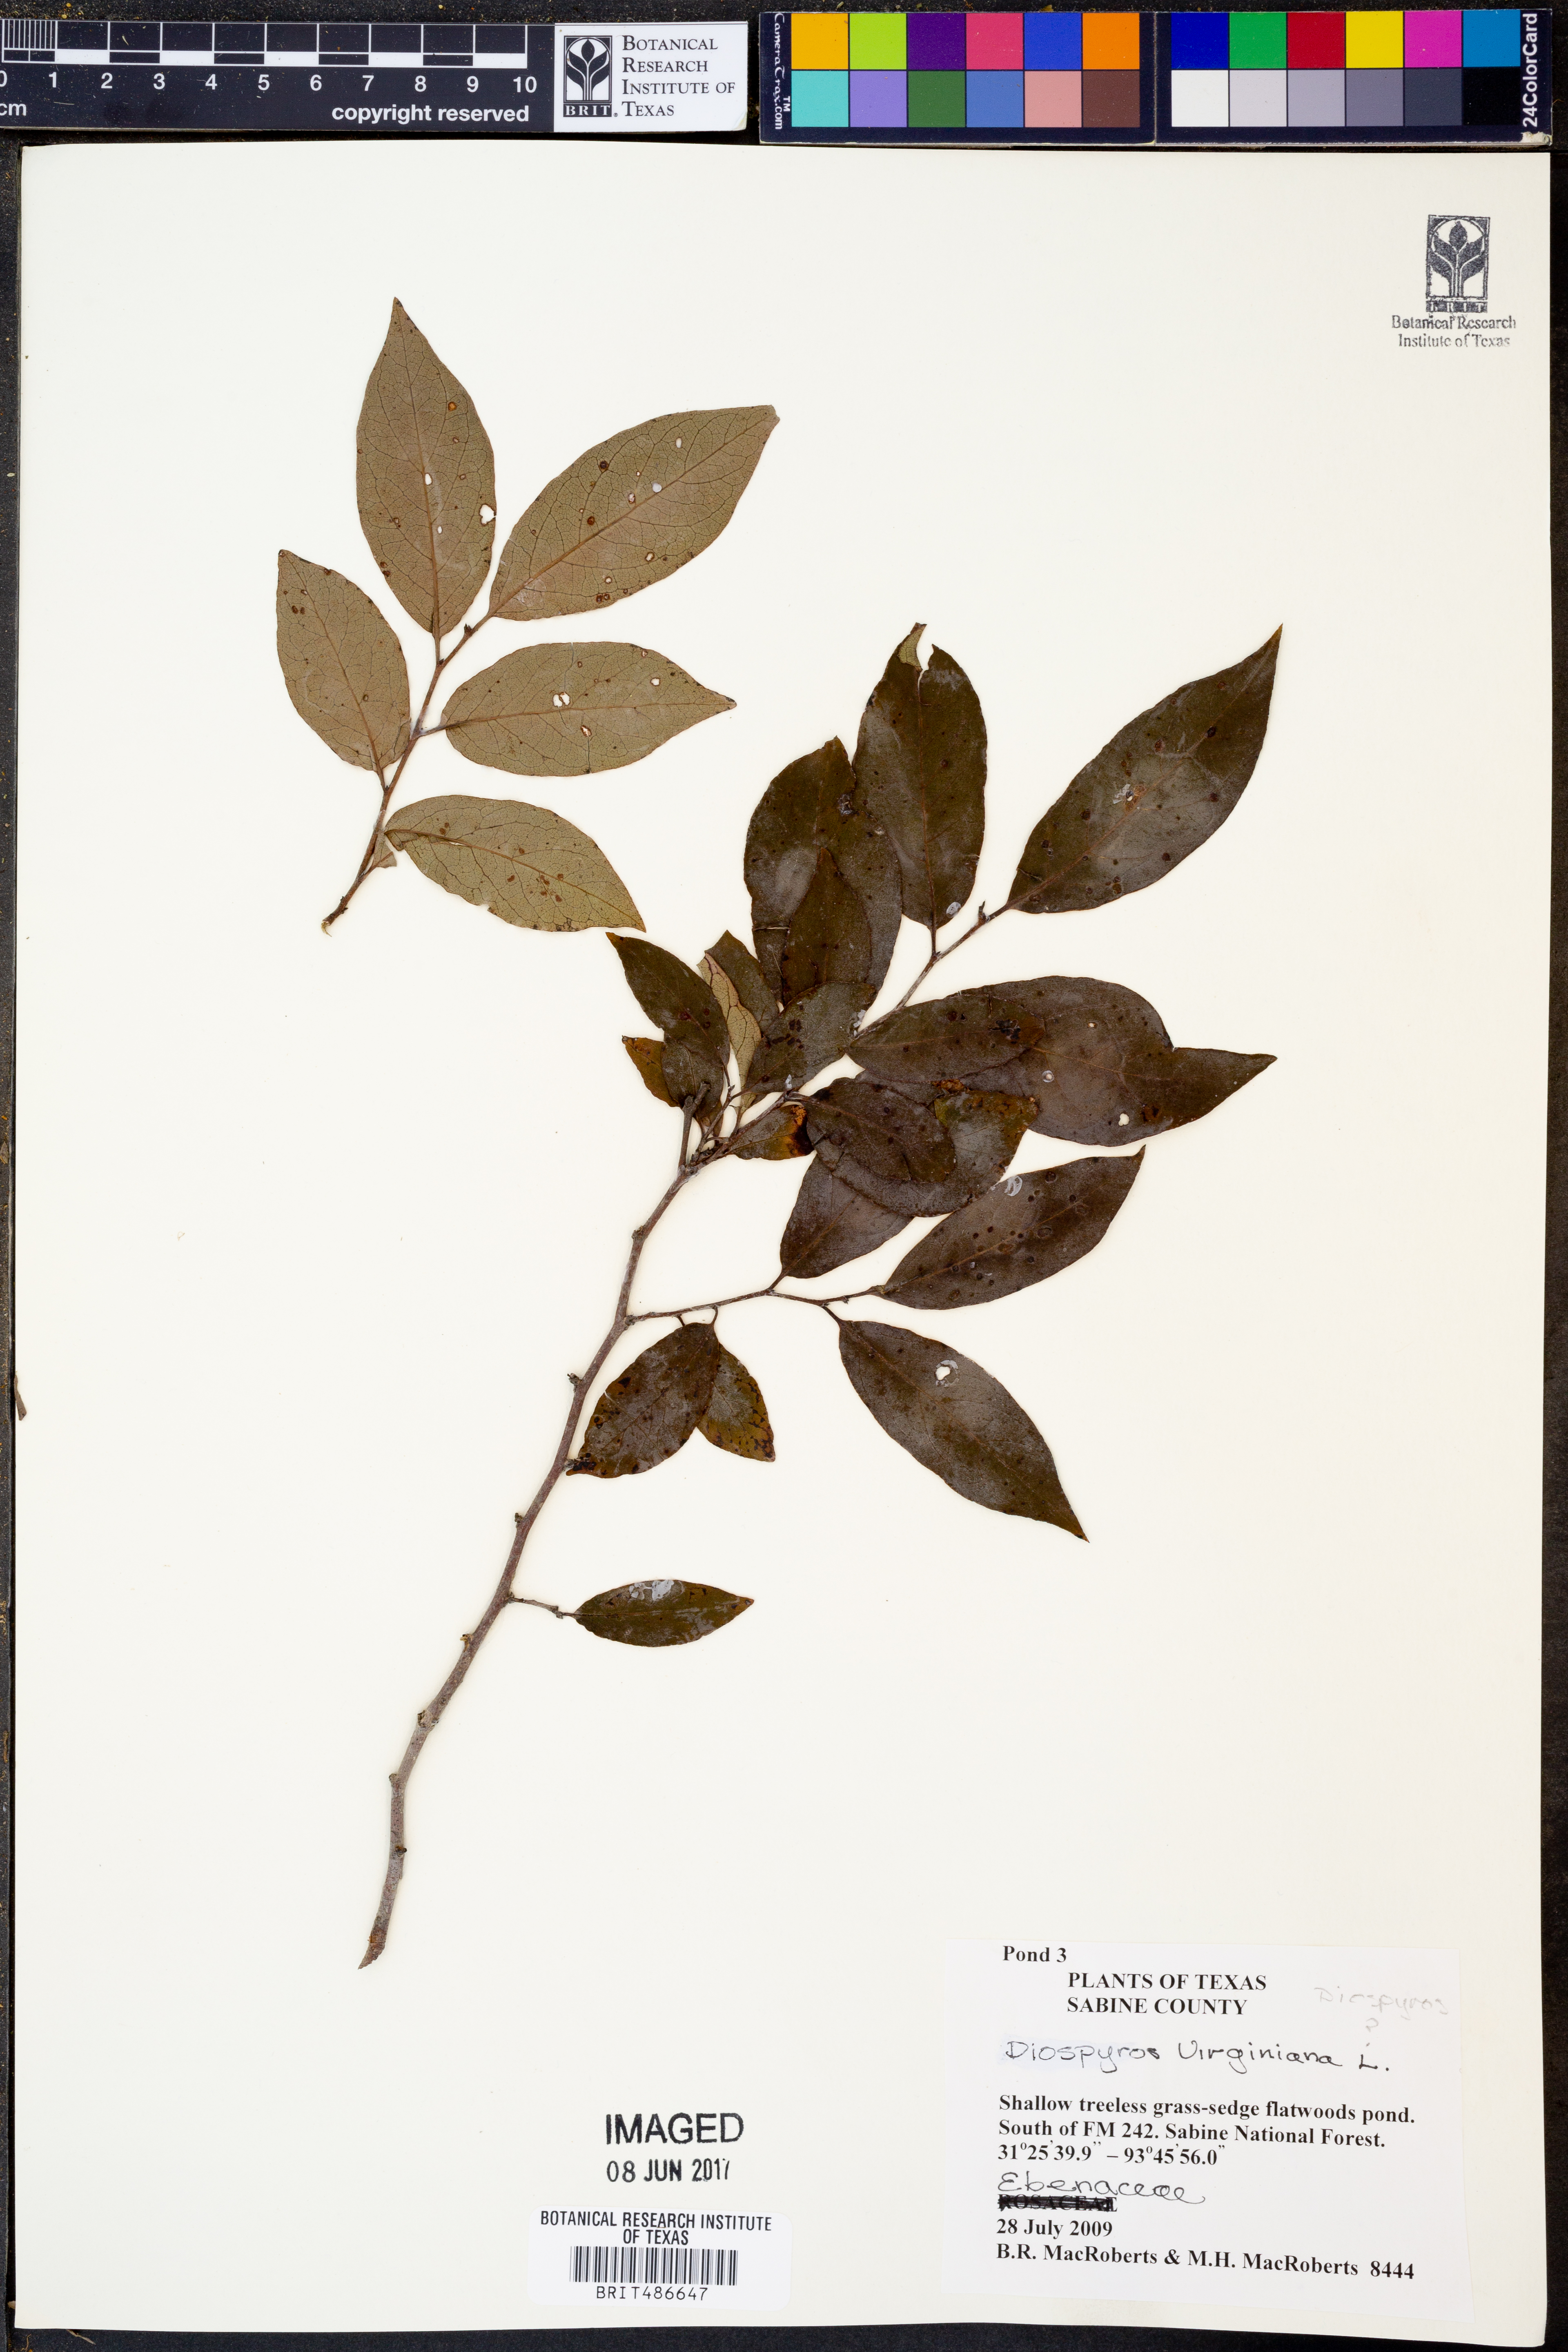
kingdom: Plantae
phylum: Tracheophyta
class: Magnoliopsida
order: Ericales
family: Ebenaceae
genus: Diospyros
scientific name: Diospyros virginiana
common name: Persimmon
